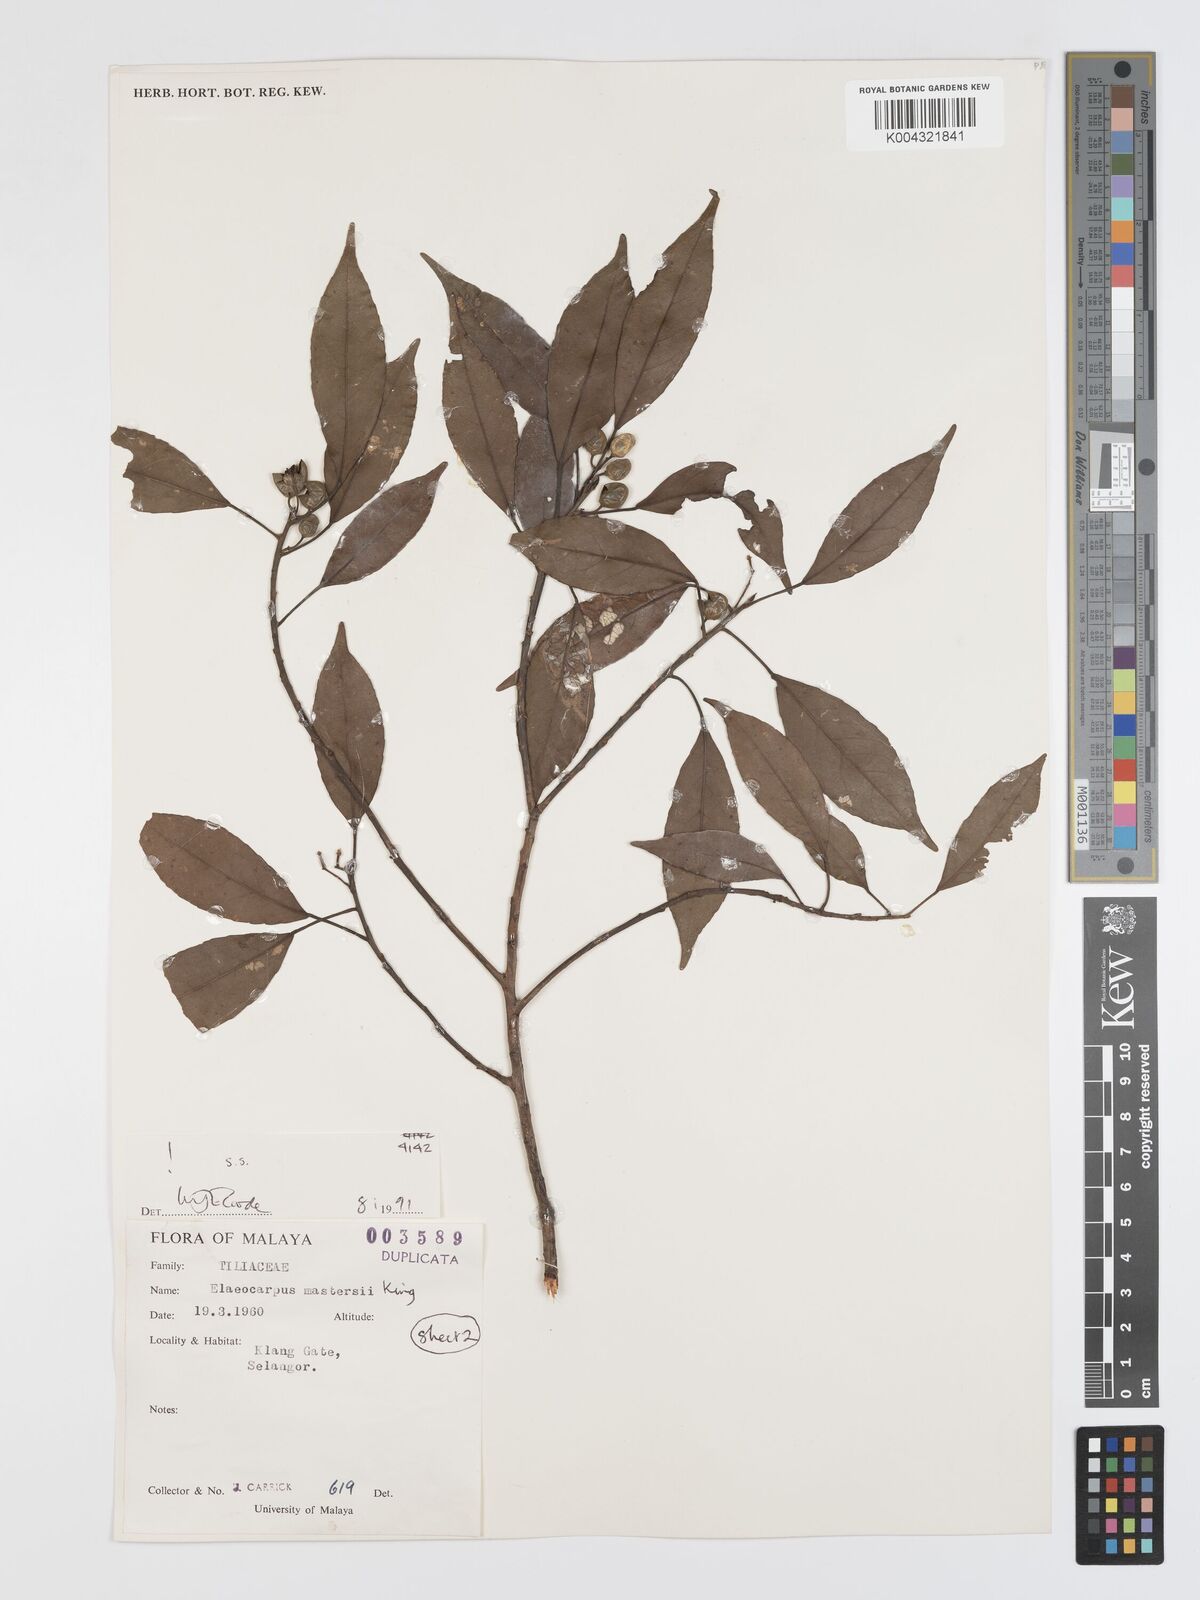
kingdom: Plantae
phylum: Tracheophyta
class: Magnoliopsida
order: Oxalidales
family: Elaeocarpaceae
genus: Elaeocarpus
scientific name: Elaeocarpus mastersii
